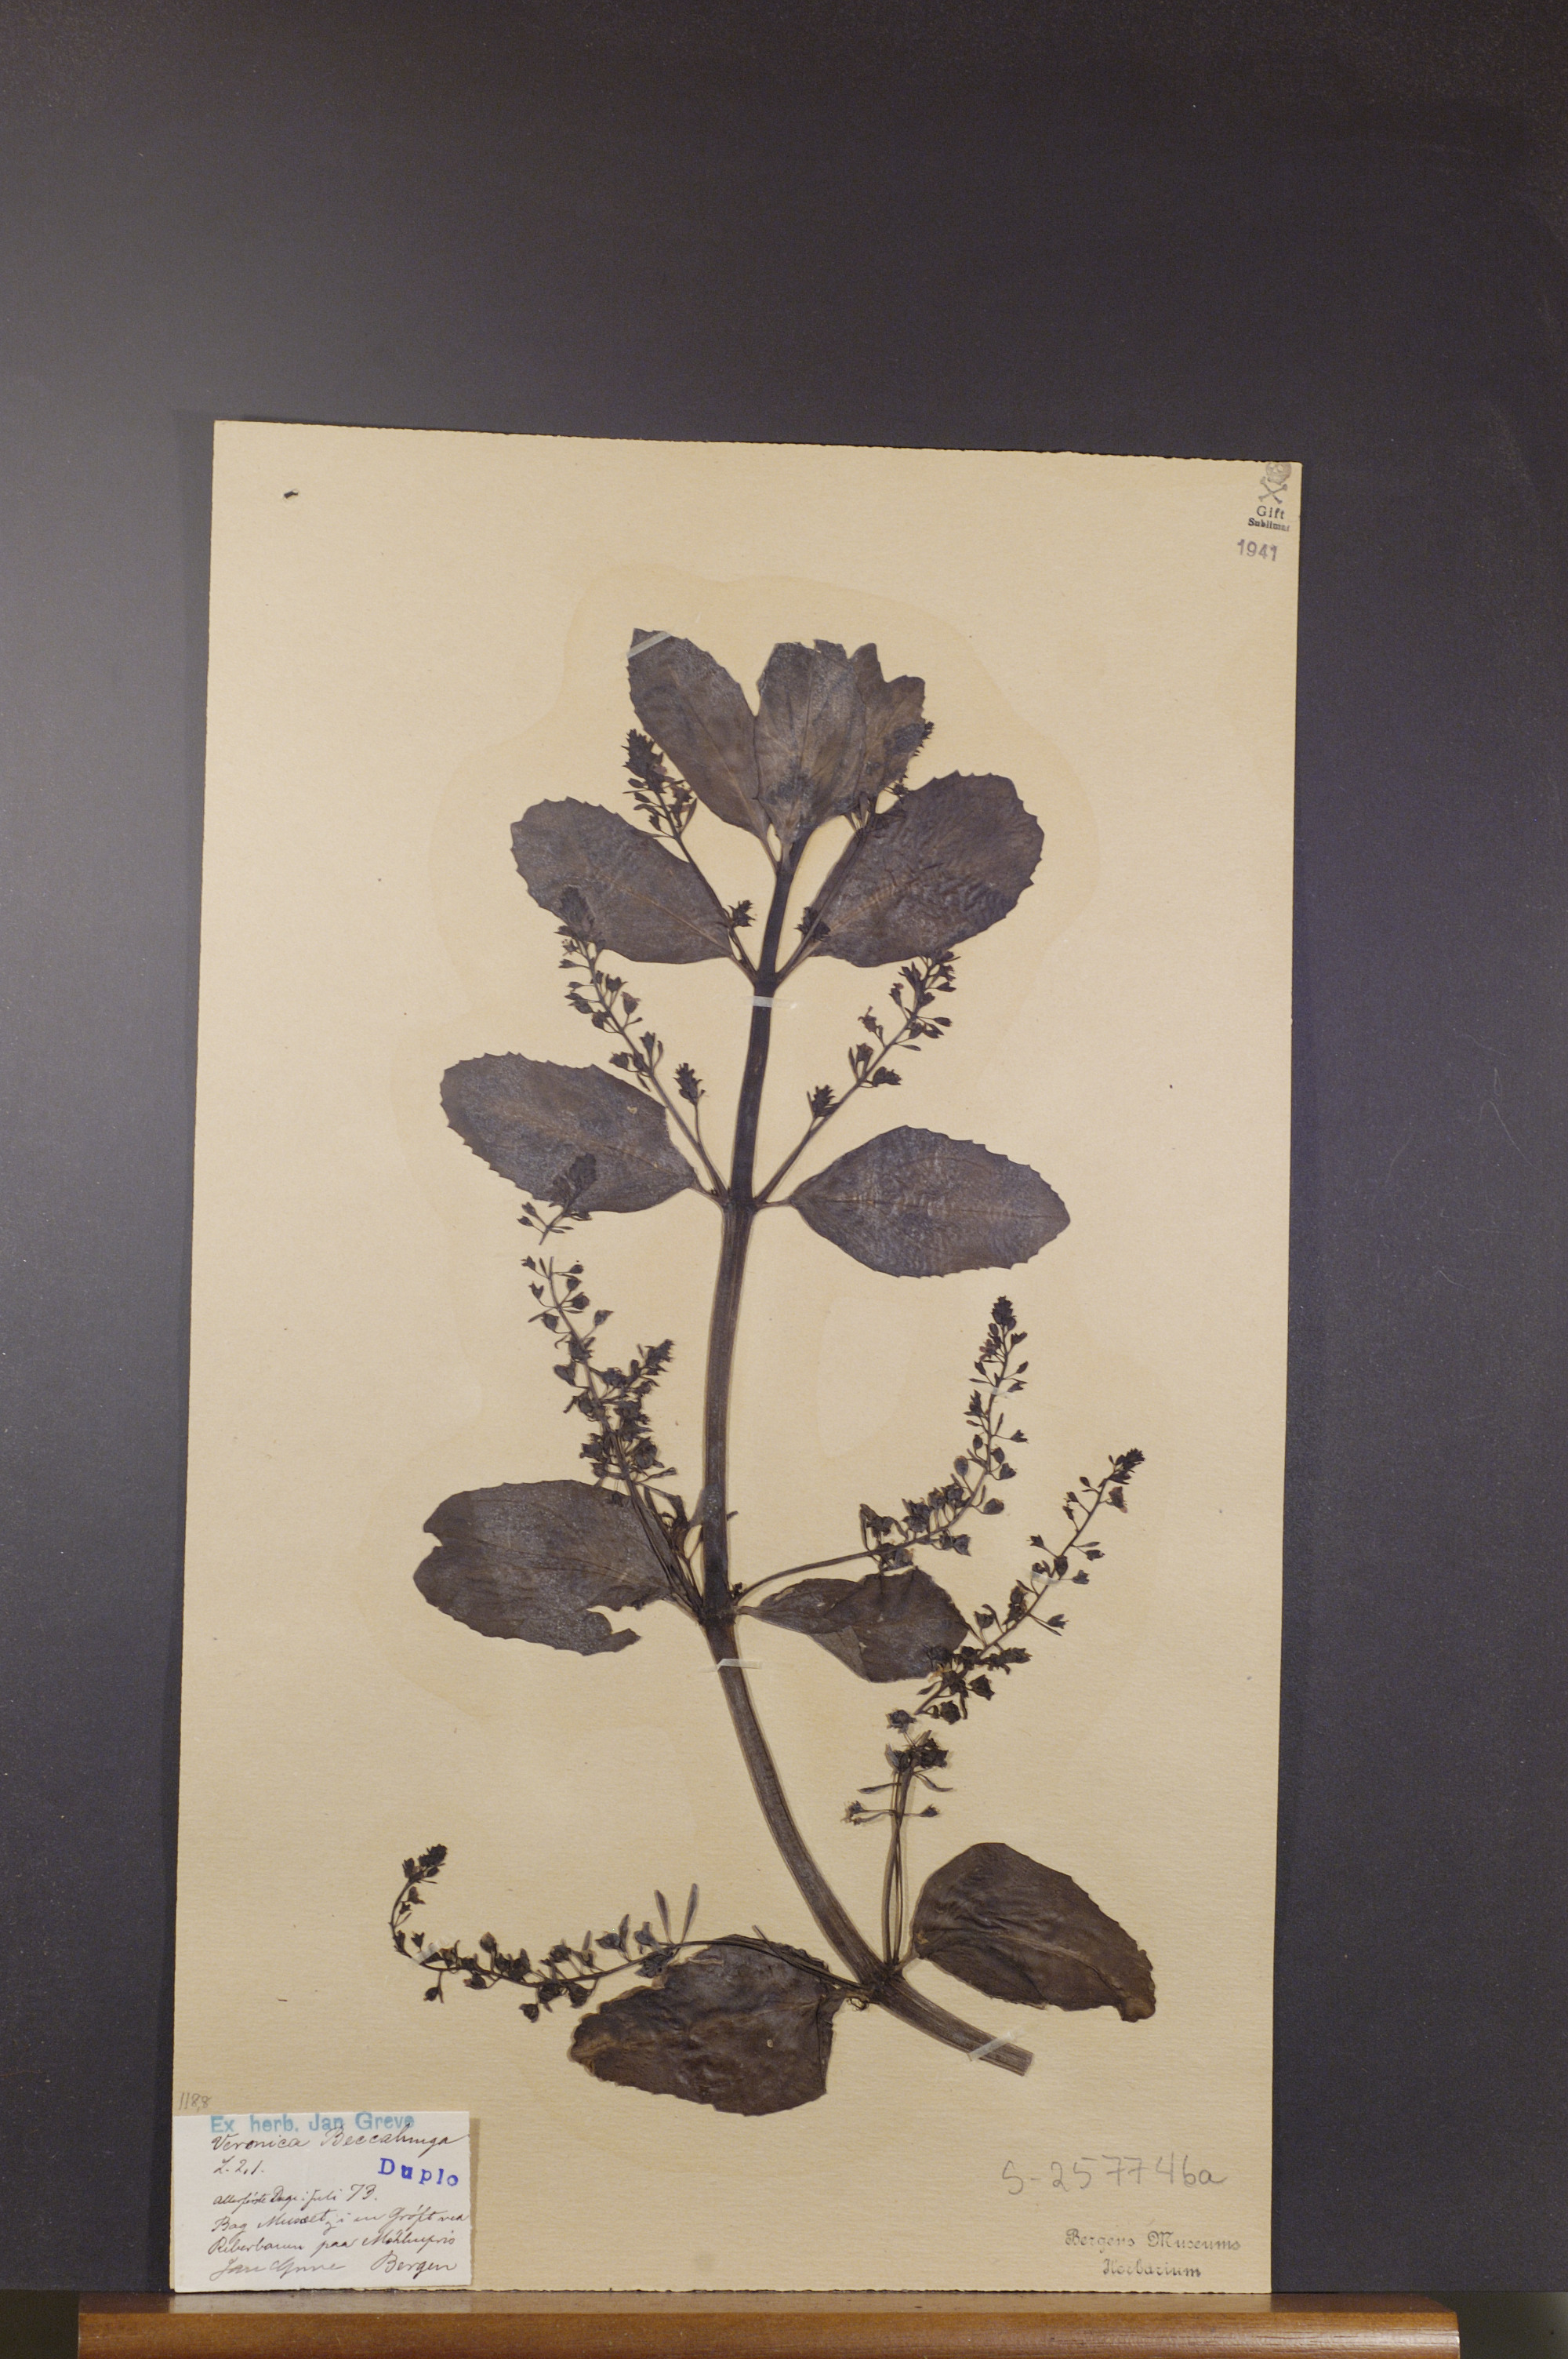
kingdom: Plantae
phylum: Tracheophyta
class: Magnoliopsida
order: Lamiales
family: Plantaginaceae
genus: Veronica
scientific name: Veronica beccabunga
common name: Brooklime
